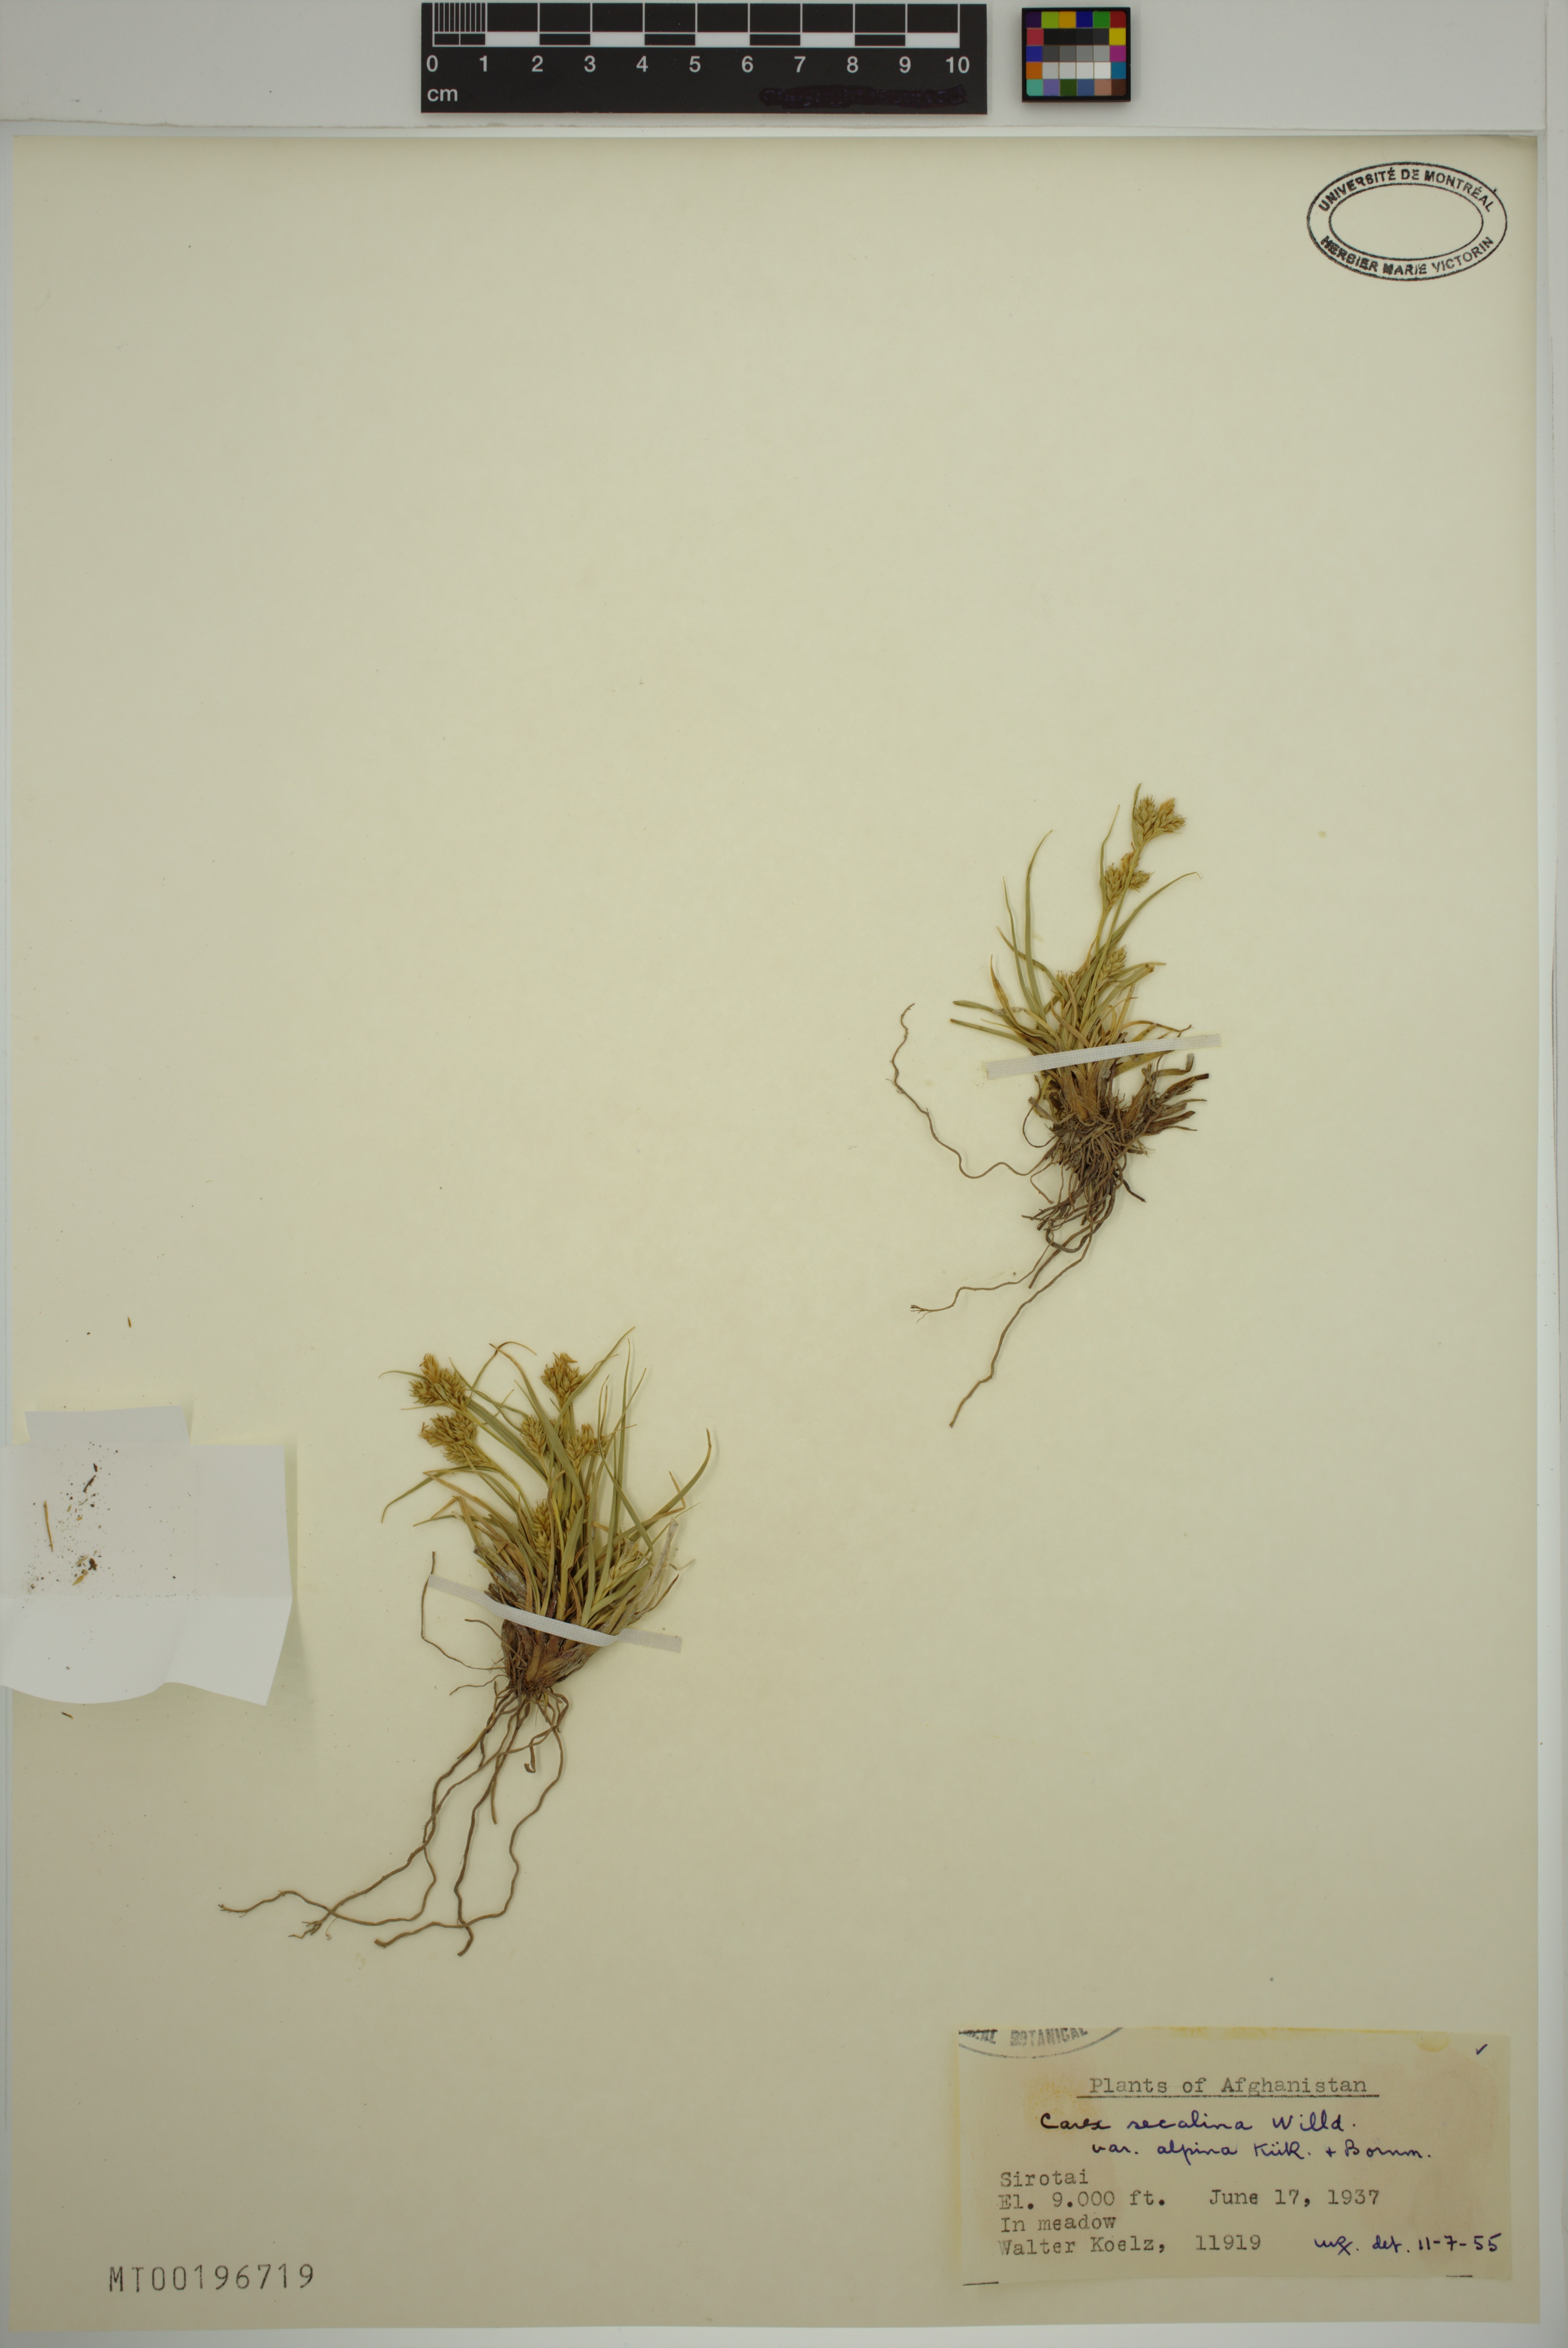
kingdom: Plantae
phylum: Tracheophyta
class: Liliopsida
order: Poales
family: Cyperaceae
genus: Carex
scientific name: Carex secalina
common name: Rye sedge
